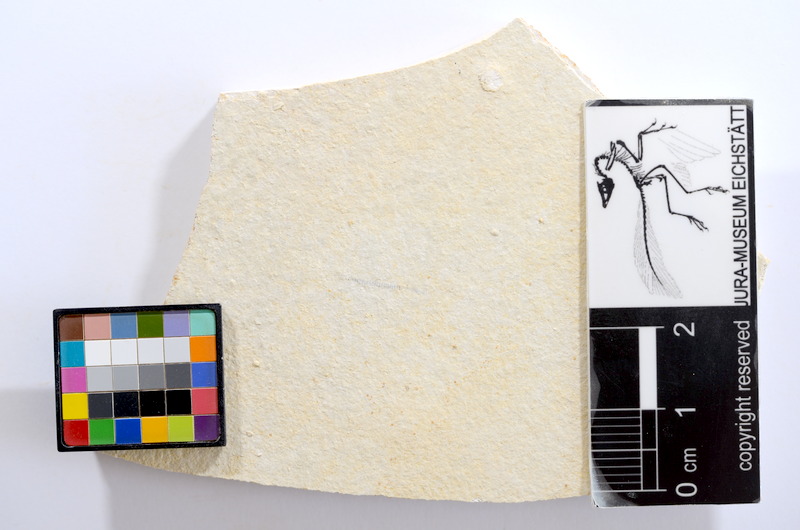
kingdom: Animalia
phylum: Chordata
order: Salmoniformes
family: Orthogonikleithridae
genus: Orthogonikleithrus
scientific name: Orthogonikleithrus hoelli
